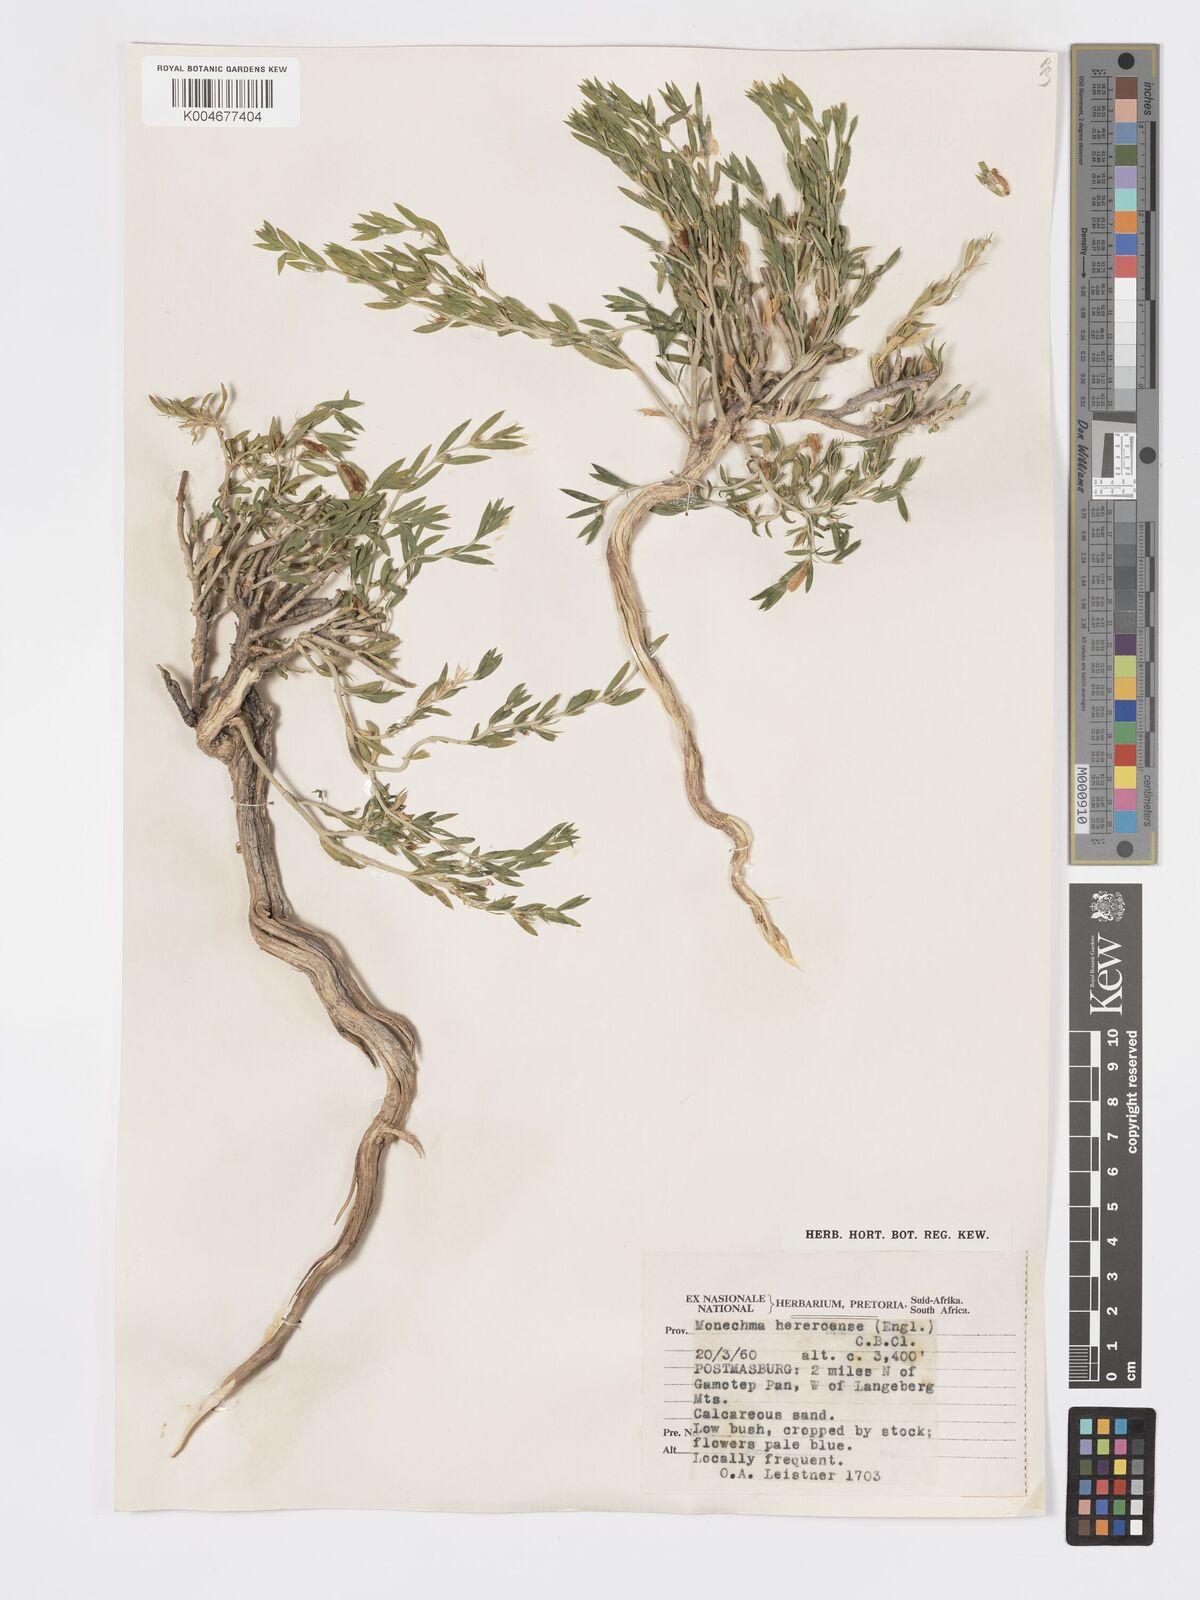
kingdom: Plantae
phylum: Tracheophyta
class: Magnoliopsida
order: Lamiales
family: Acanthaceae
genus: Pogonospermum
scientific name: Pogonospermum
